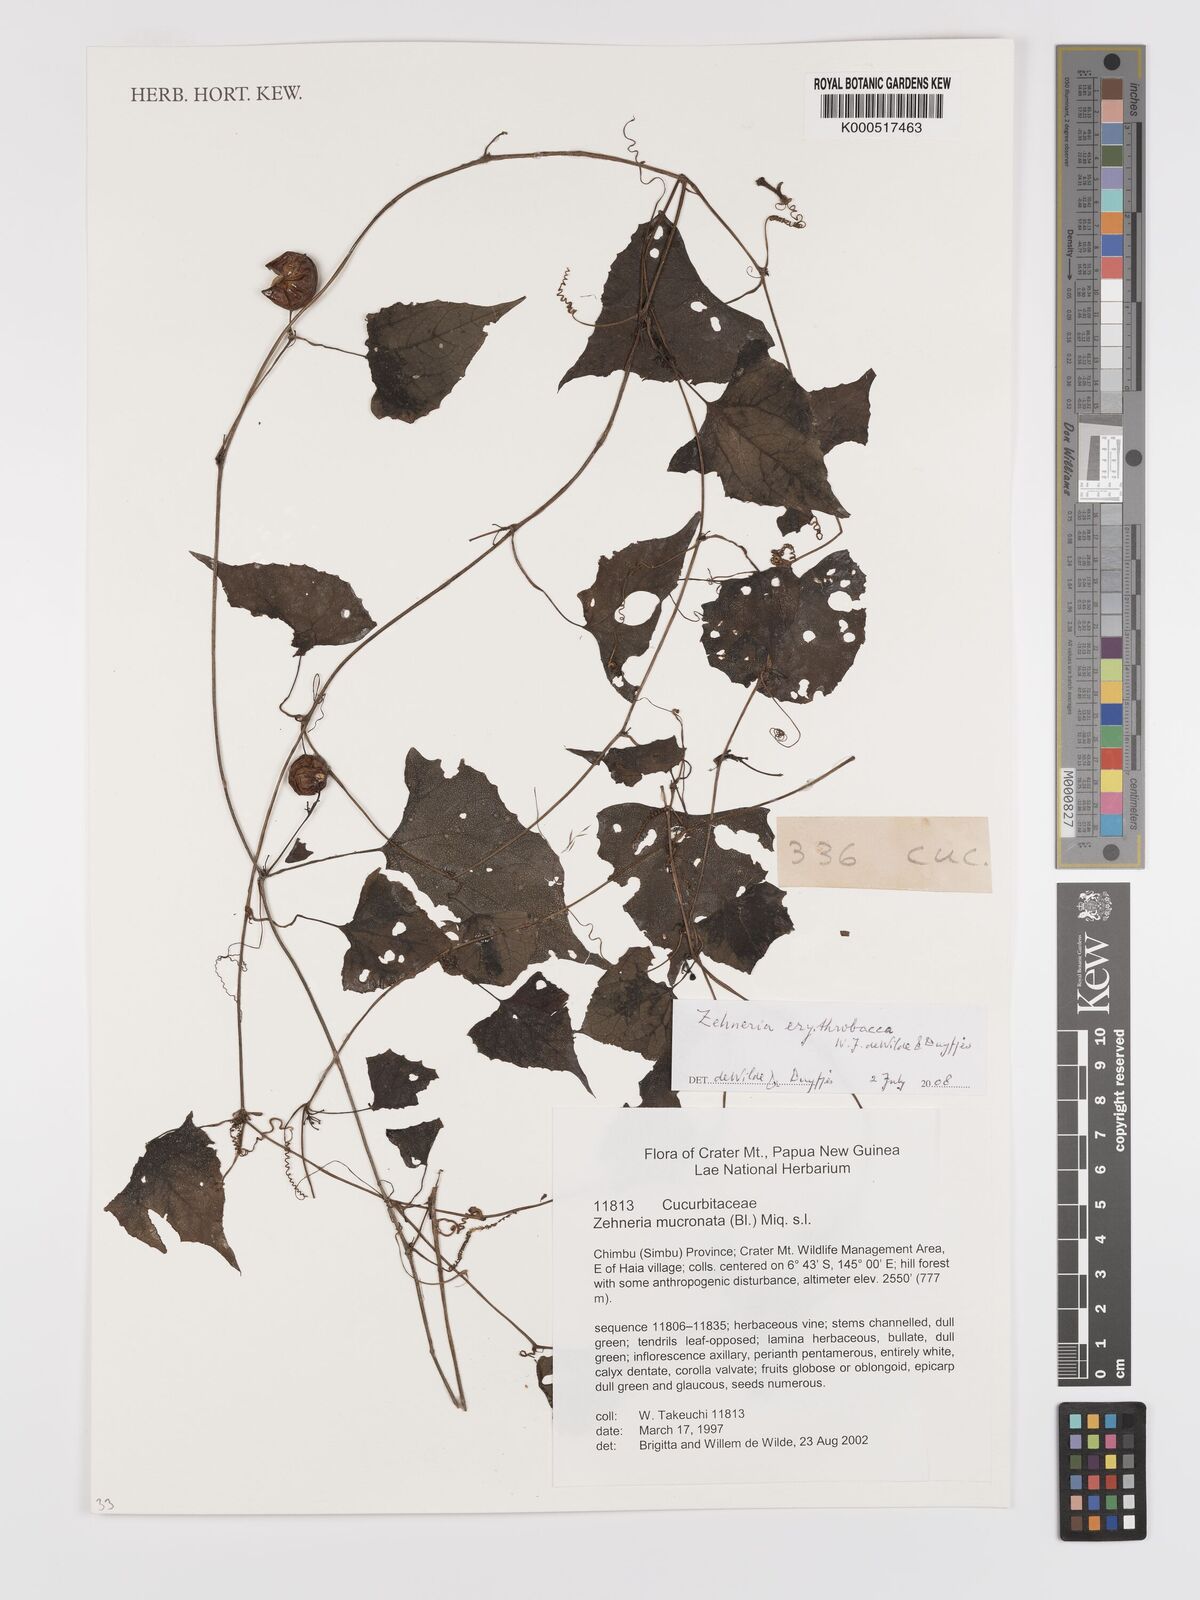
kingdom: Plantae
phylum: Tracheophyta
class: Magnoliopsida
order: Cucurbitales
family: Cucurbitaceae
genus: Zehneria
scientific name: Zehneria erythrobacca
